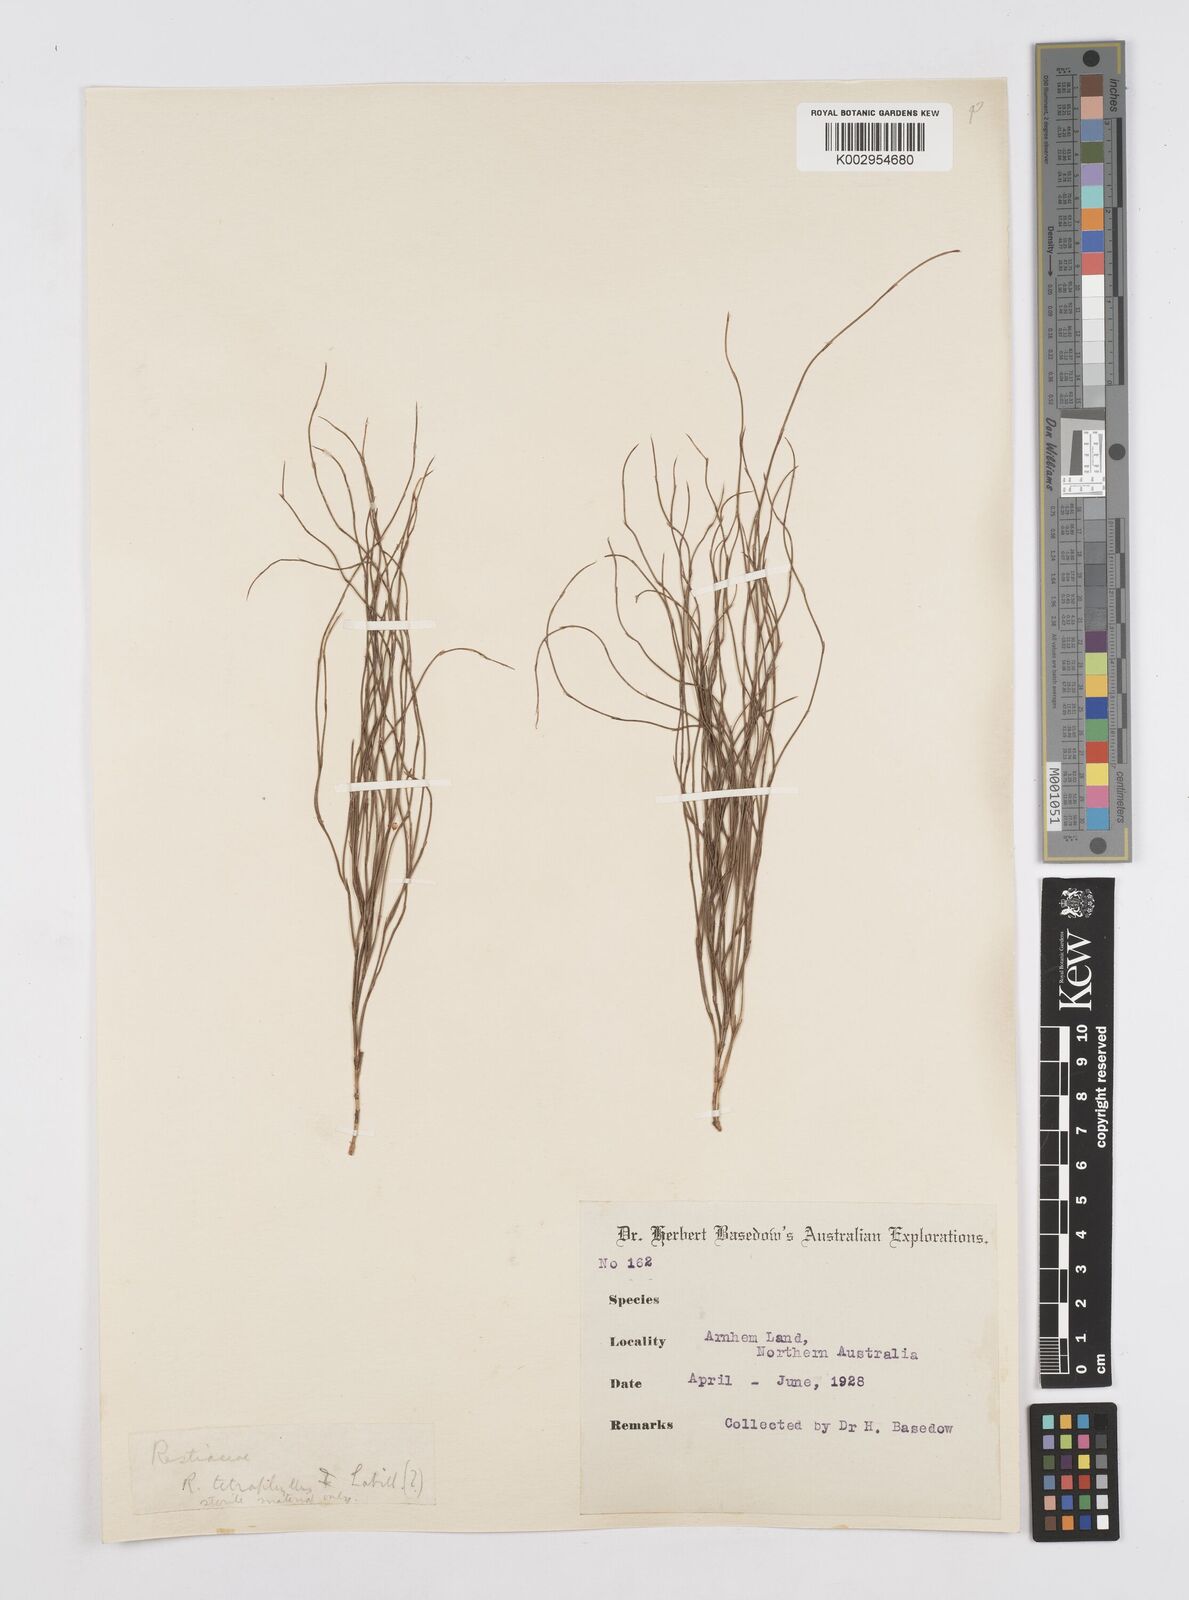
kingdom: Plantae
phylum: Tracheophyta
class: Liliopsida
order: Poales
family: Restionaceae
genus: Baloskion
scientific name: Baloskion tetraphyllum
